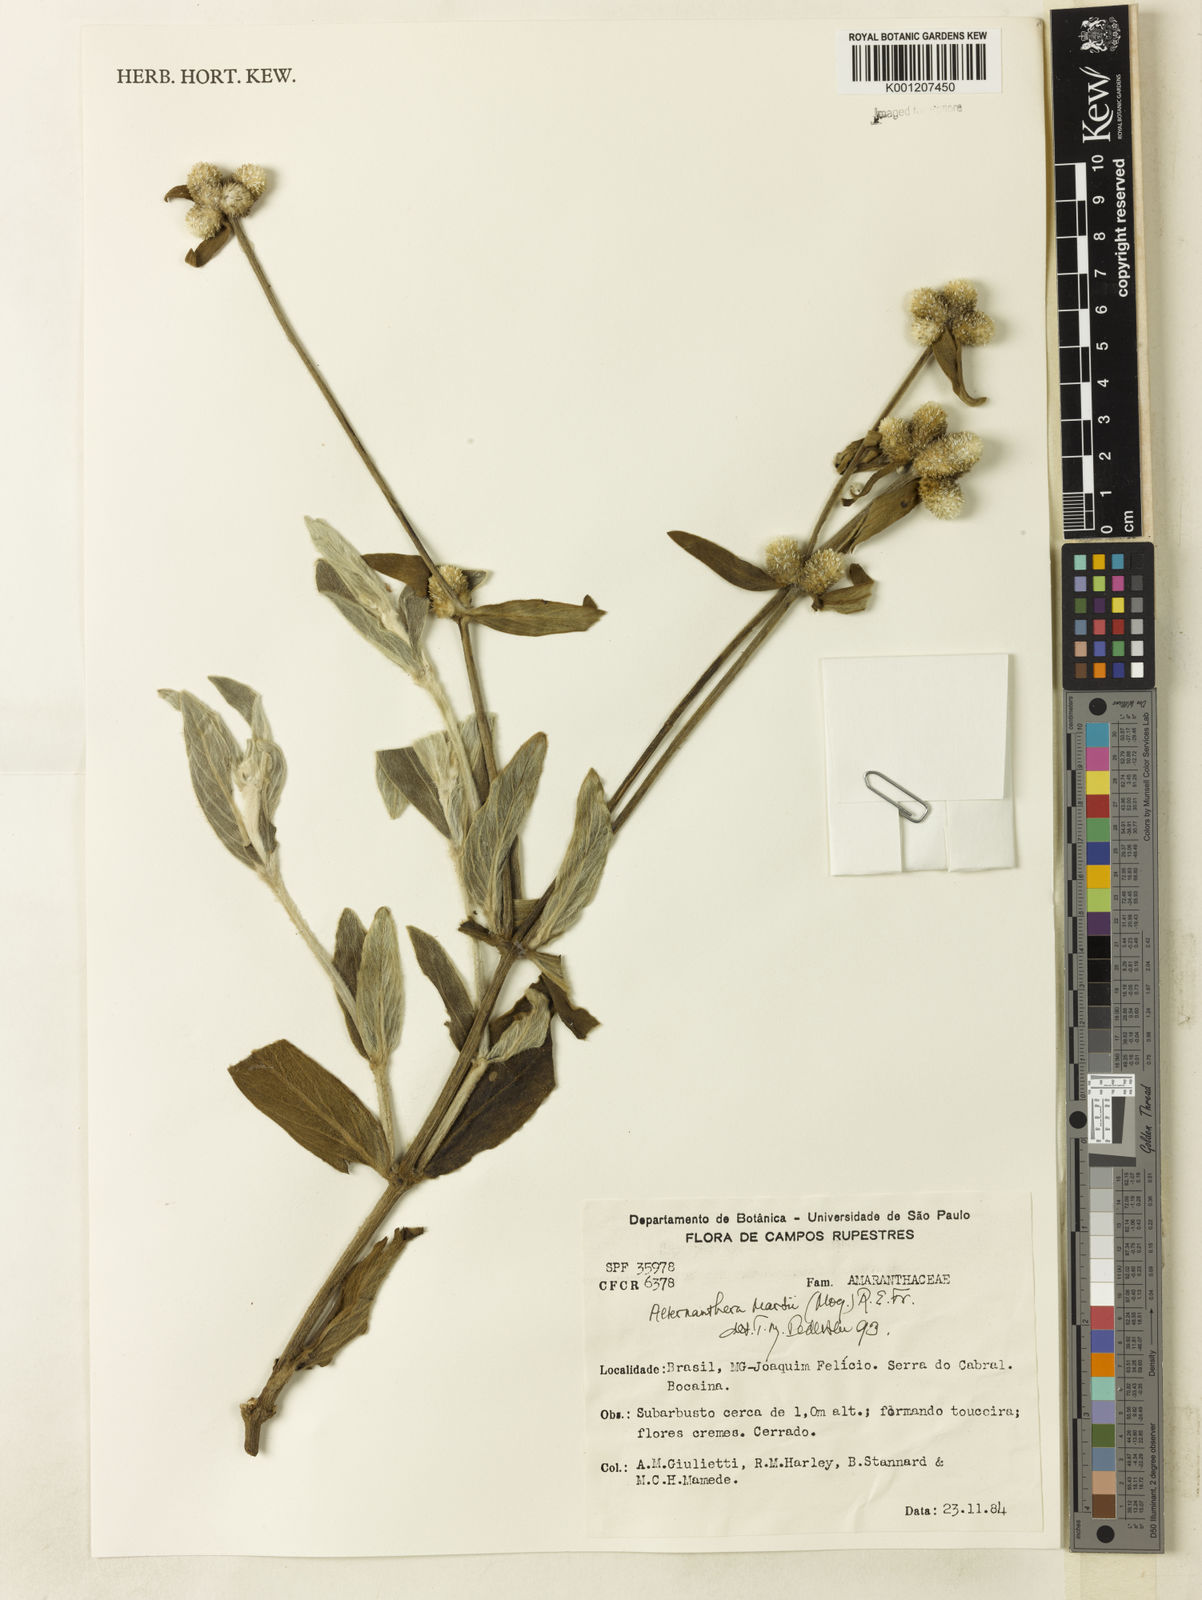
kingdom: Plantae
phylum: Tracheophyta
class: Magnoliopsida
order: Caryophyllales
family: Amaranthaceae
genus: Alternanthera
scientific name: Alternanthera martii
